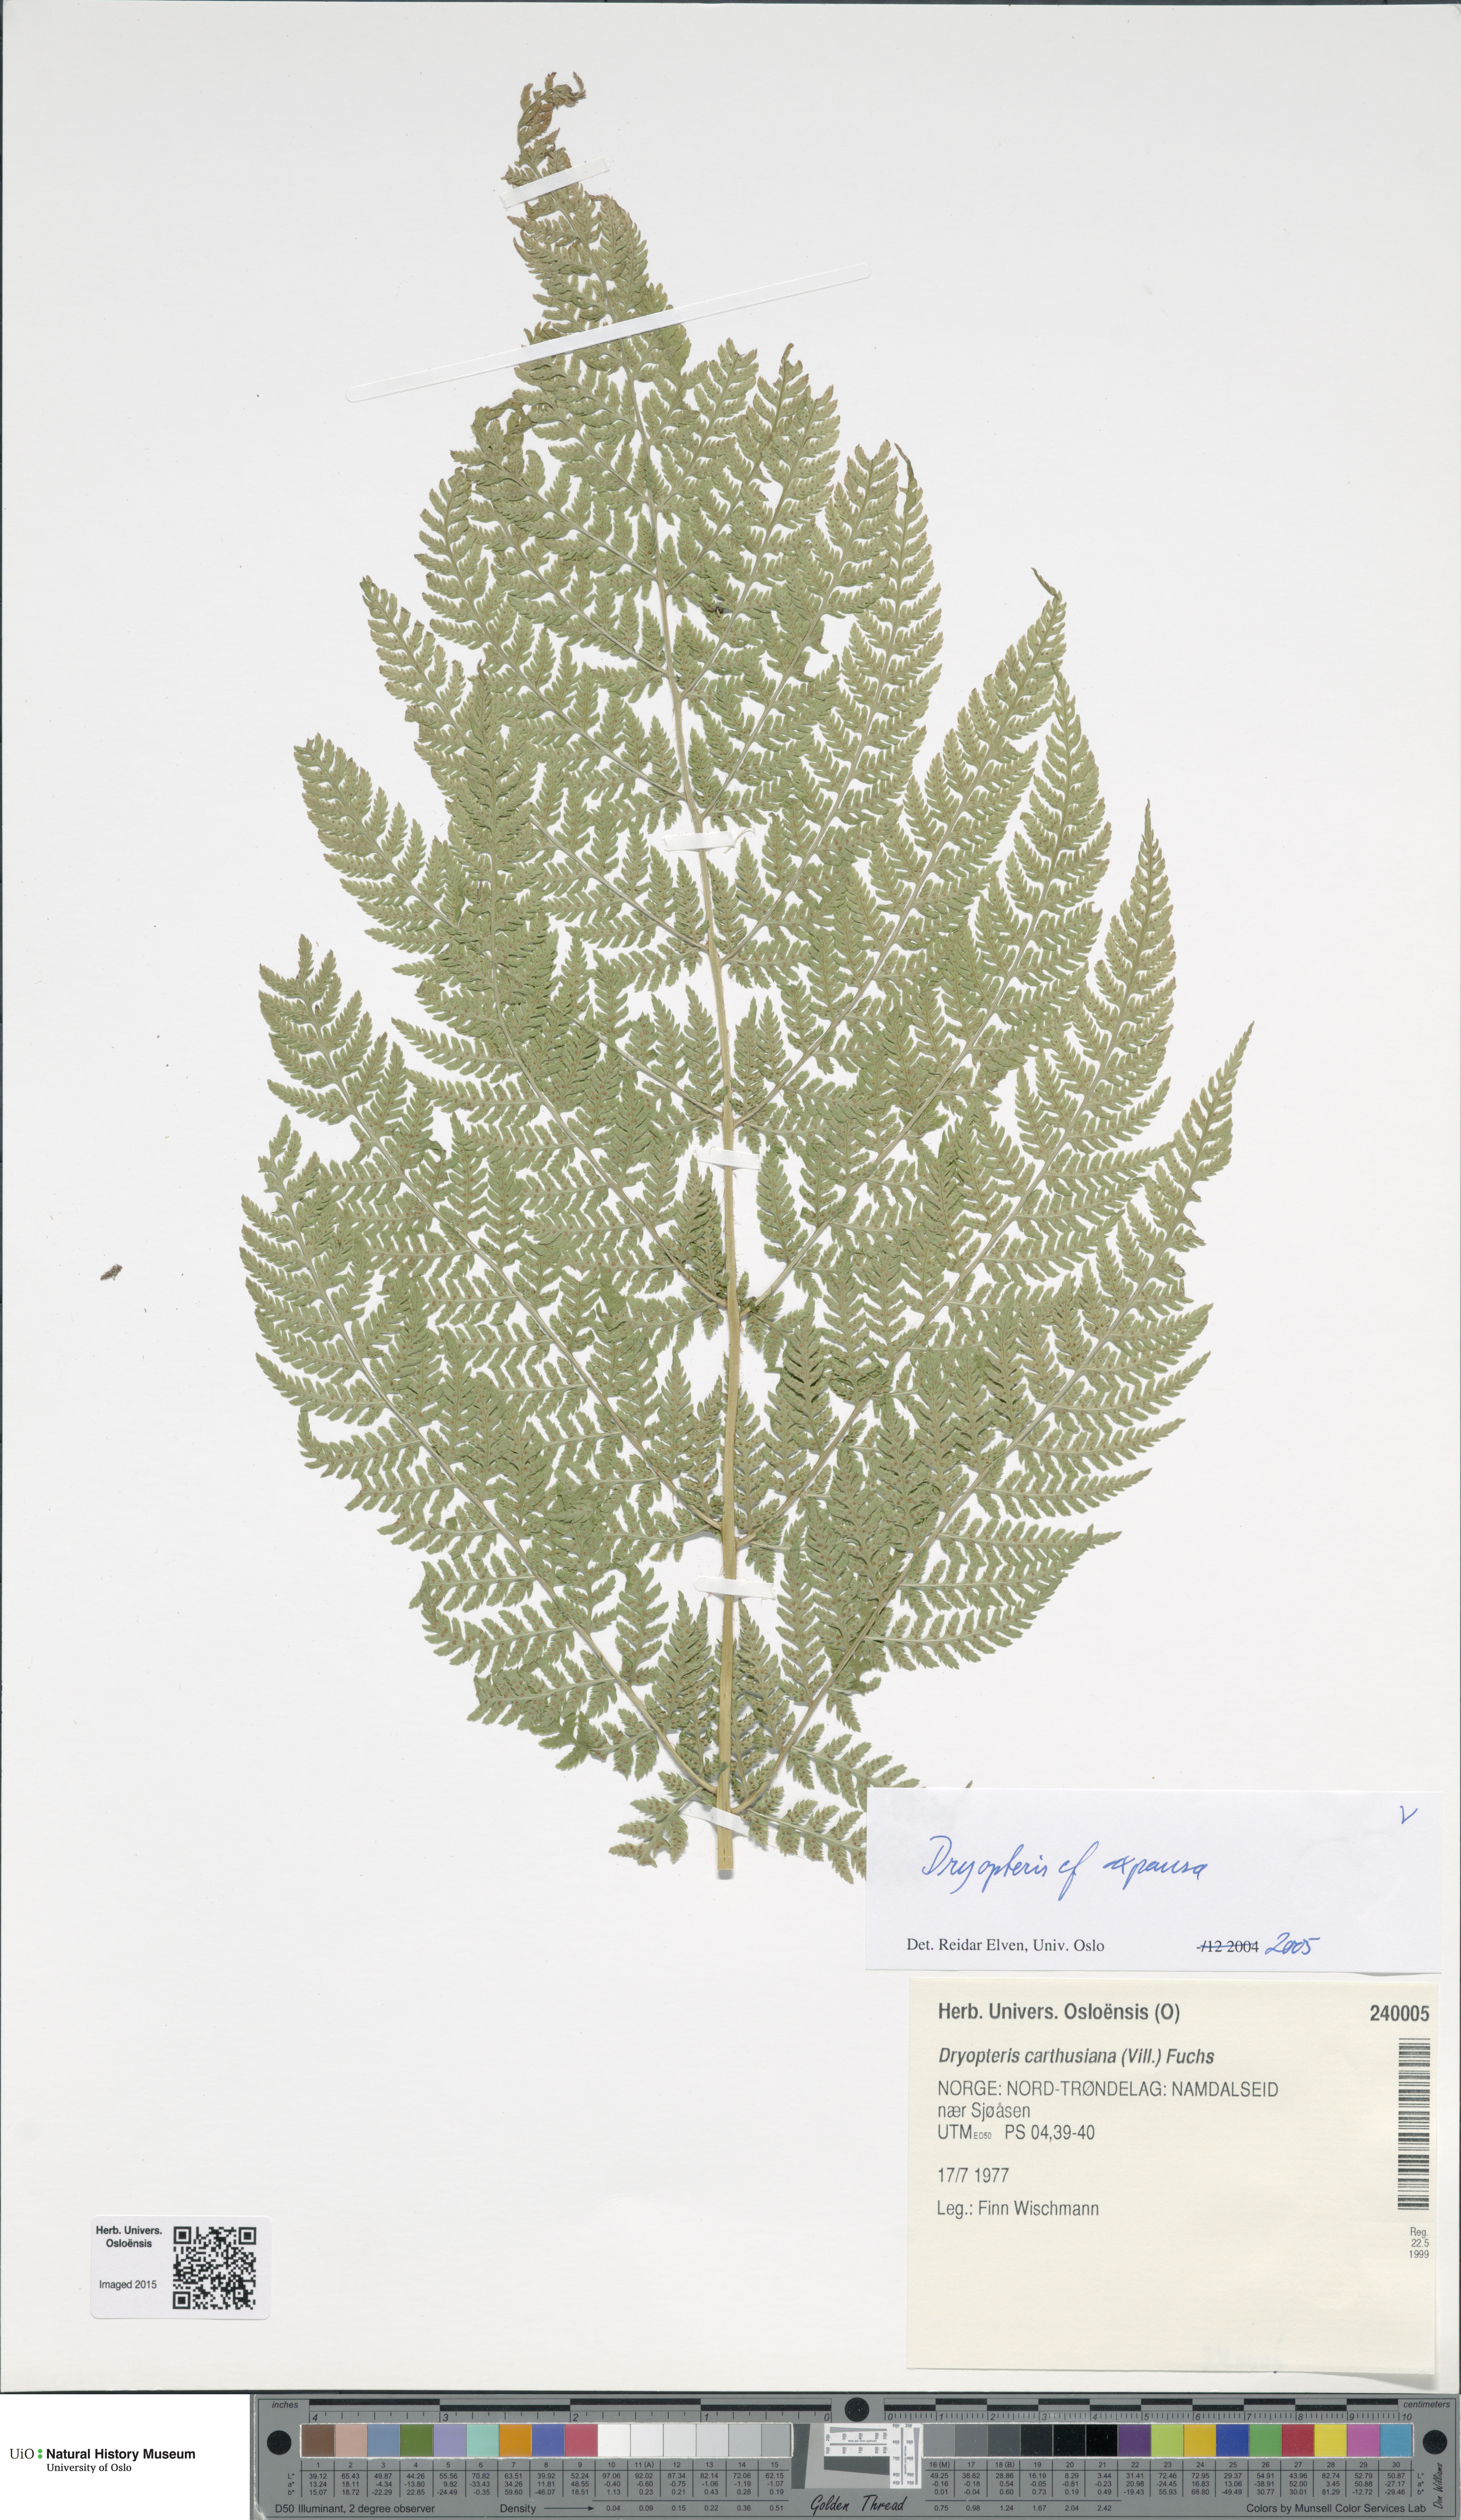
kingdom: Plantae
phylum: Tracheophyta
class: Polypodiopsida
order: Polypodiales
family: Dryopteridaceae
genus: Dryopteris
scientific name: Dryopteris expansa
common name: Northern buckler fern
